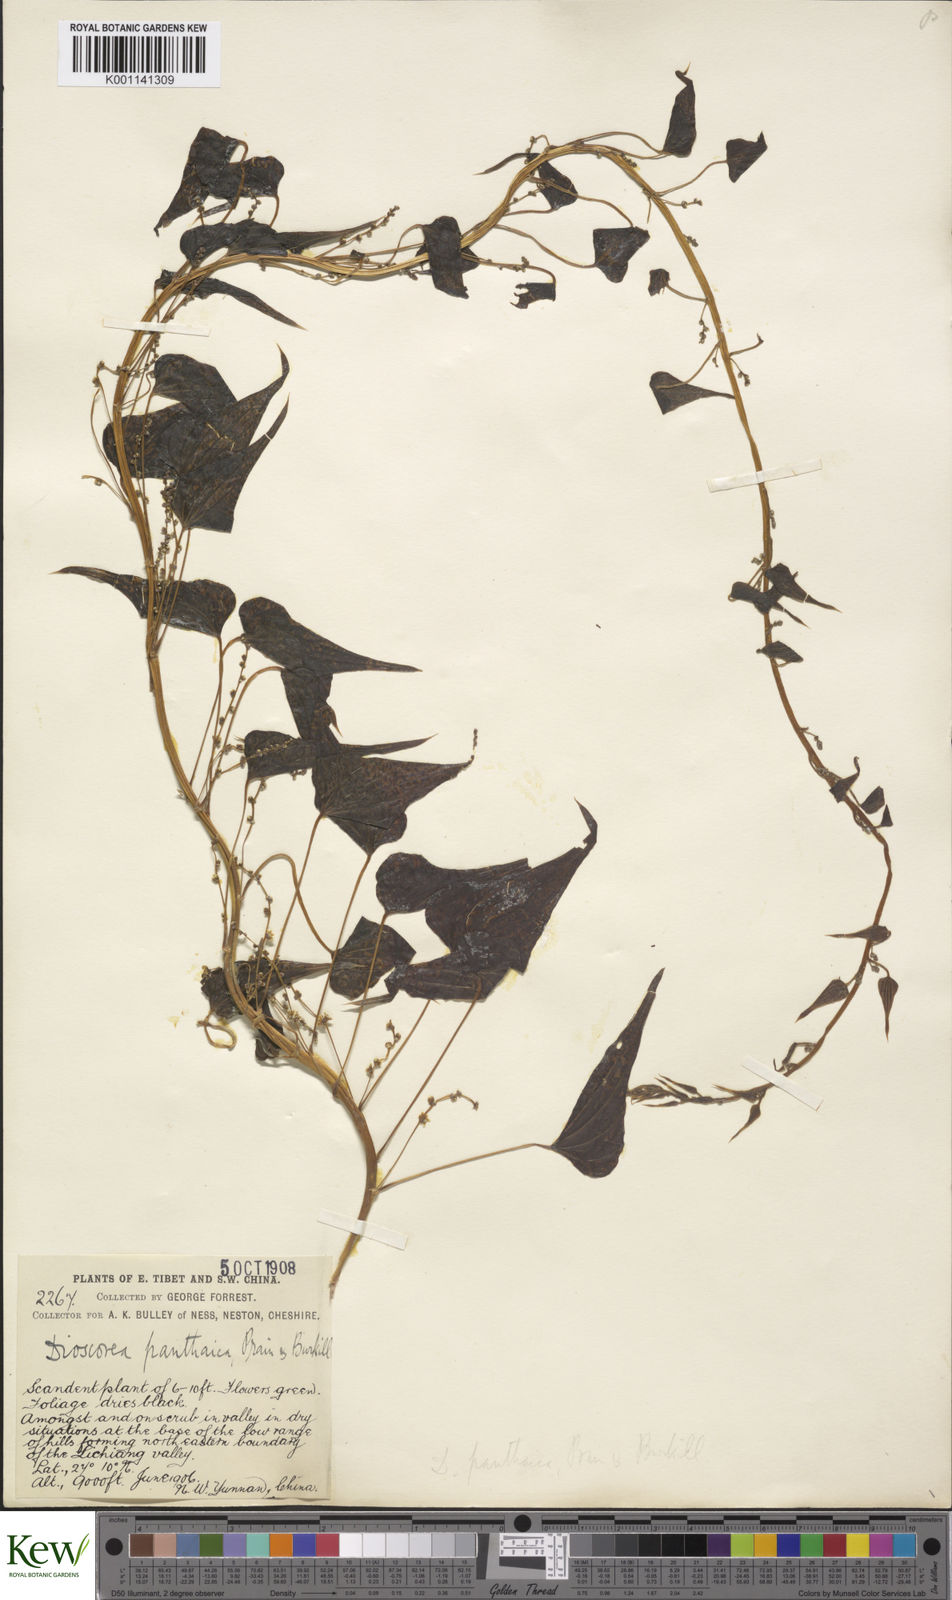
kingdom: Plantae
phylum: Tracheophyta
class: Liliopsida
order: Dioscoreales
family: Dioscoreaceae
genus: Dioscorea
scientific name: Dioscorea panthaica
